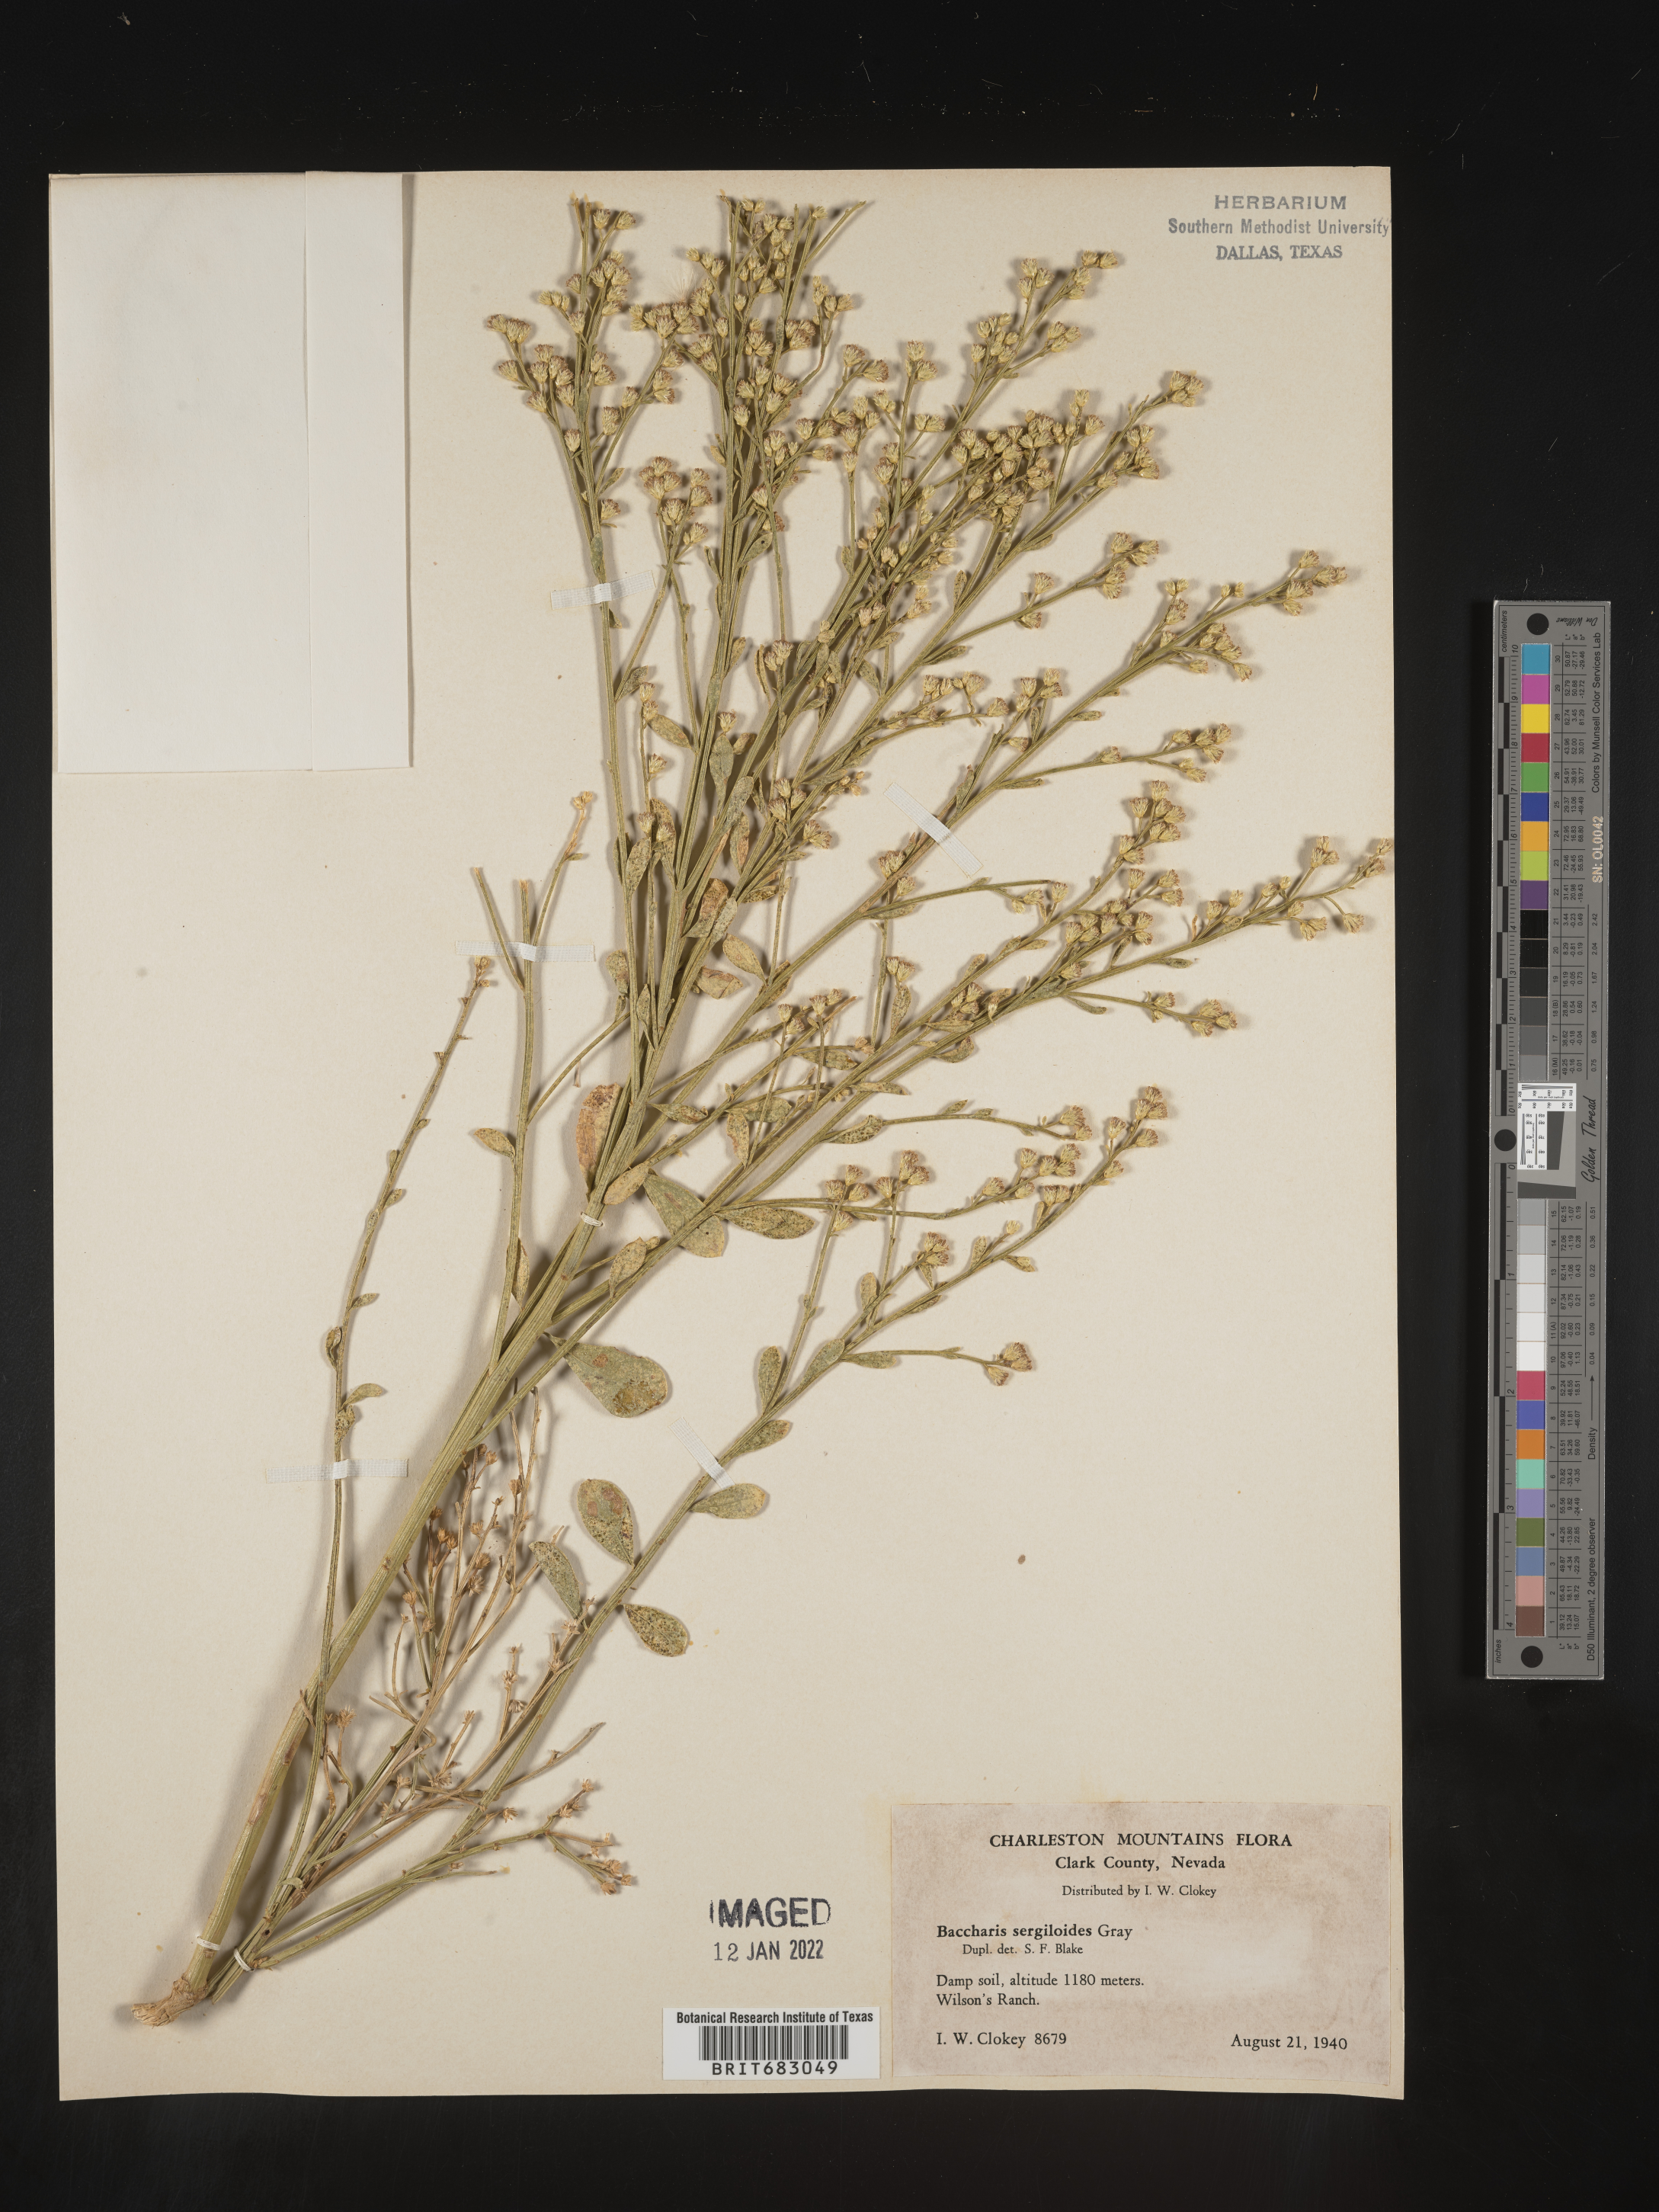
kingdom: Plantae
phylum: Tracheophyta
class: Magnoliopsida
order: Asterales
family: Asteraceae
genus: Baccharis
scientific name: Baccharis sergiloides
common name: Desert baccharis
